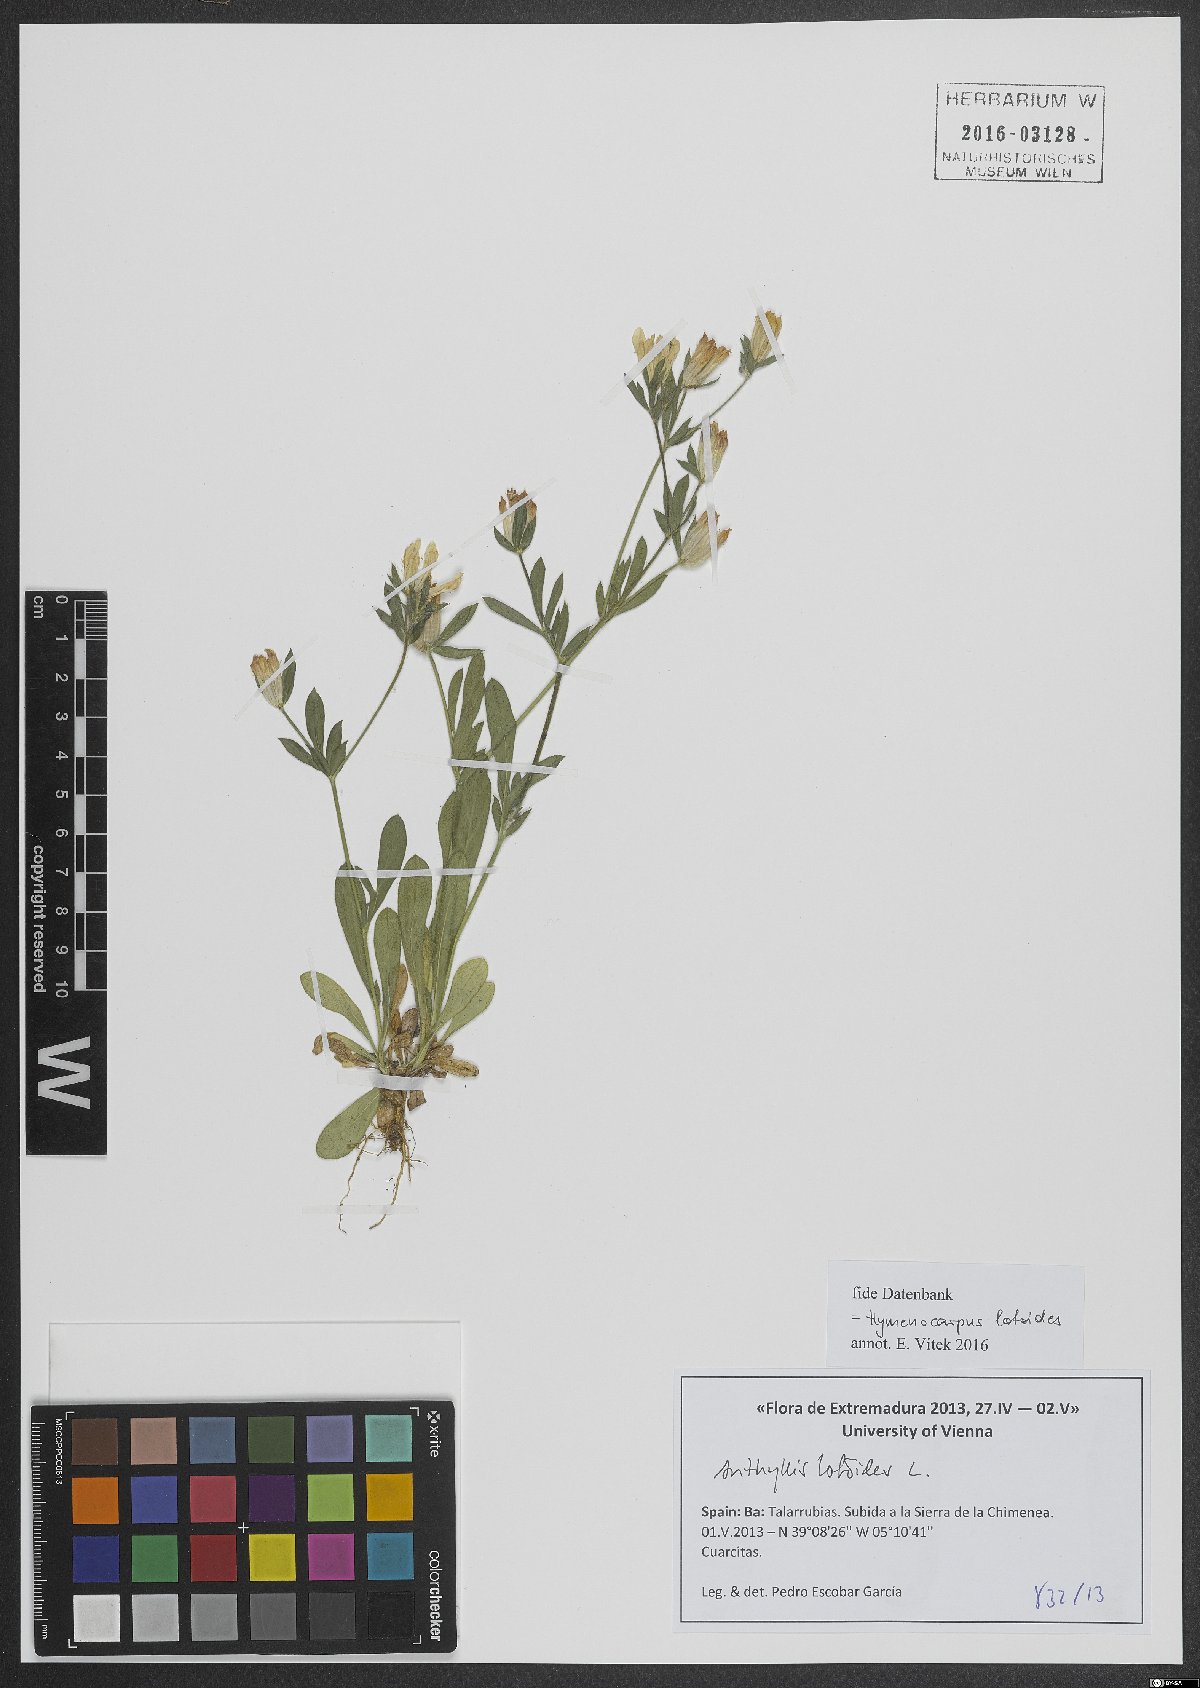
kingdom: Plantae
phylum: Tracheophyta
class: Magnoliopsida
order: Fabales
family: Fabaceae
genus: Anthyllis
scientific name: Anthyllis lotoides
